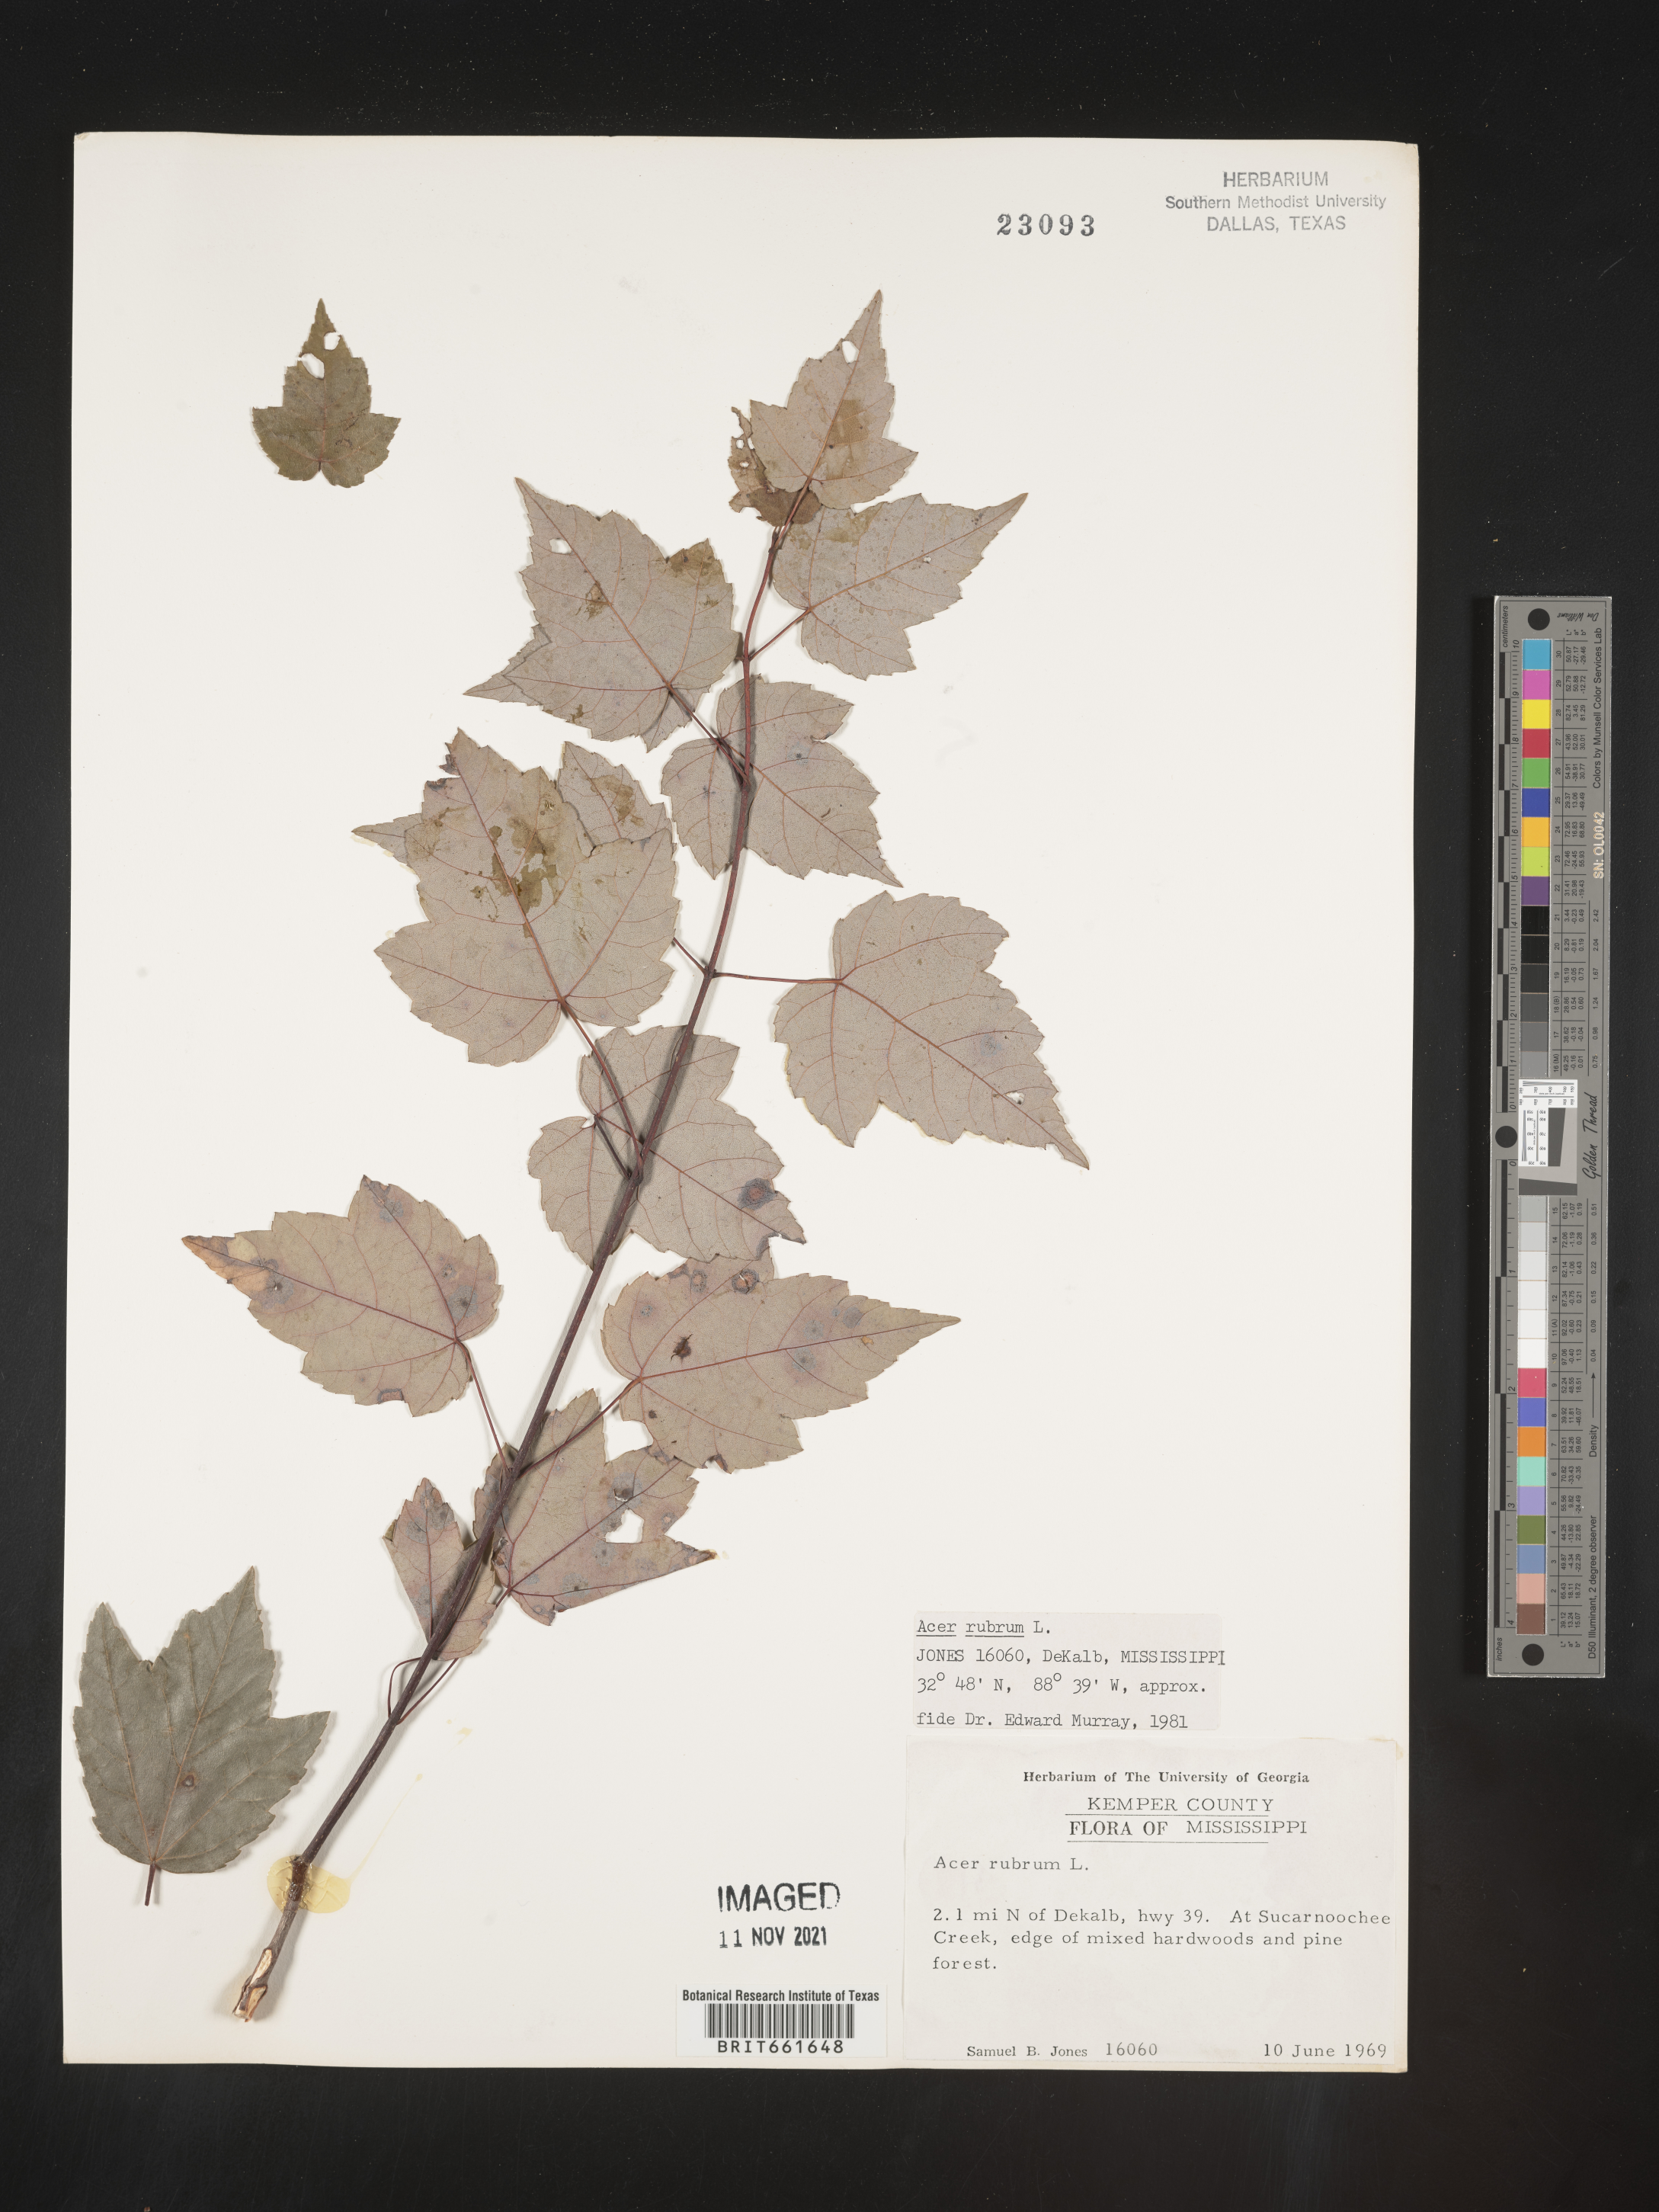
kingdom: Plantae
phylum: Tracheophyta
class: Magnoliopsida
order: Sapindales
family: Sapindaceae
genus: Acer
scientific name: Acer rubrum
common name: Red maple
